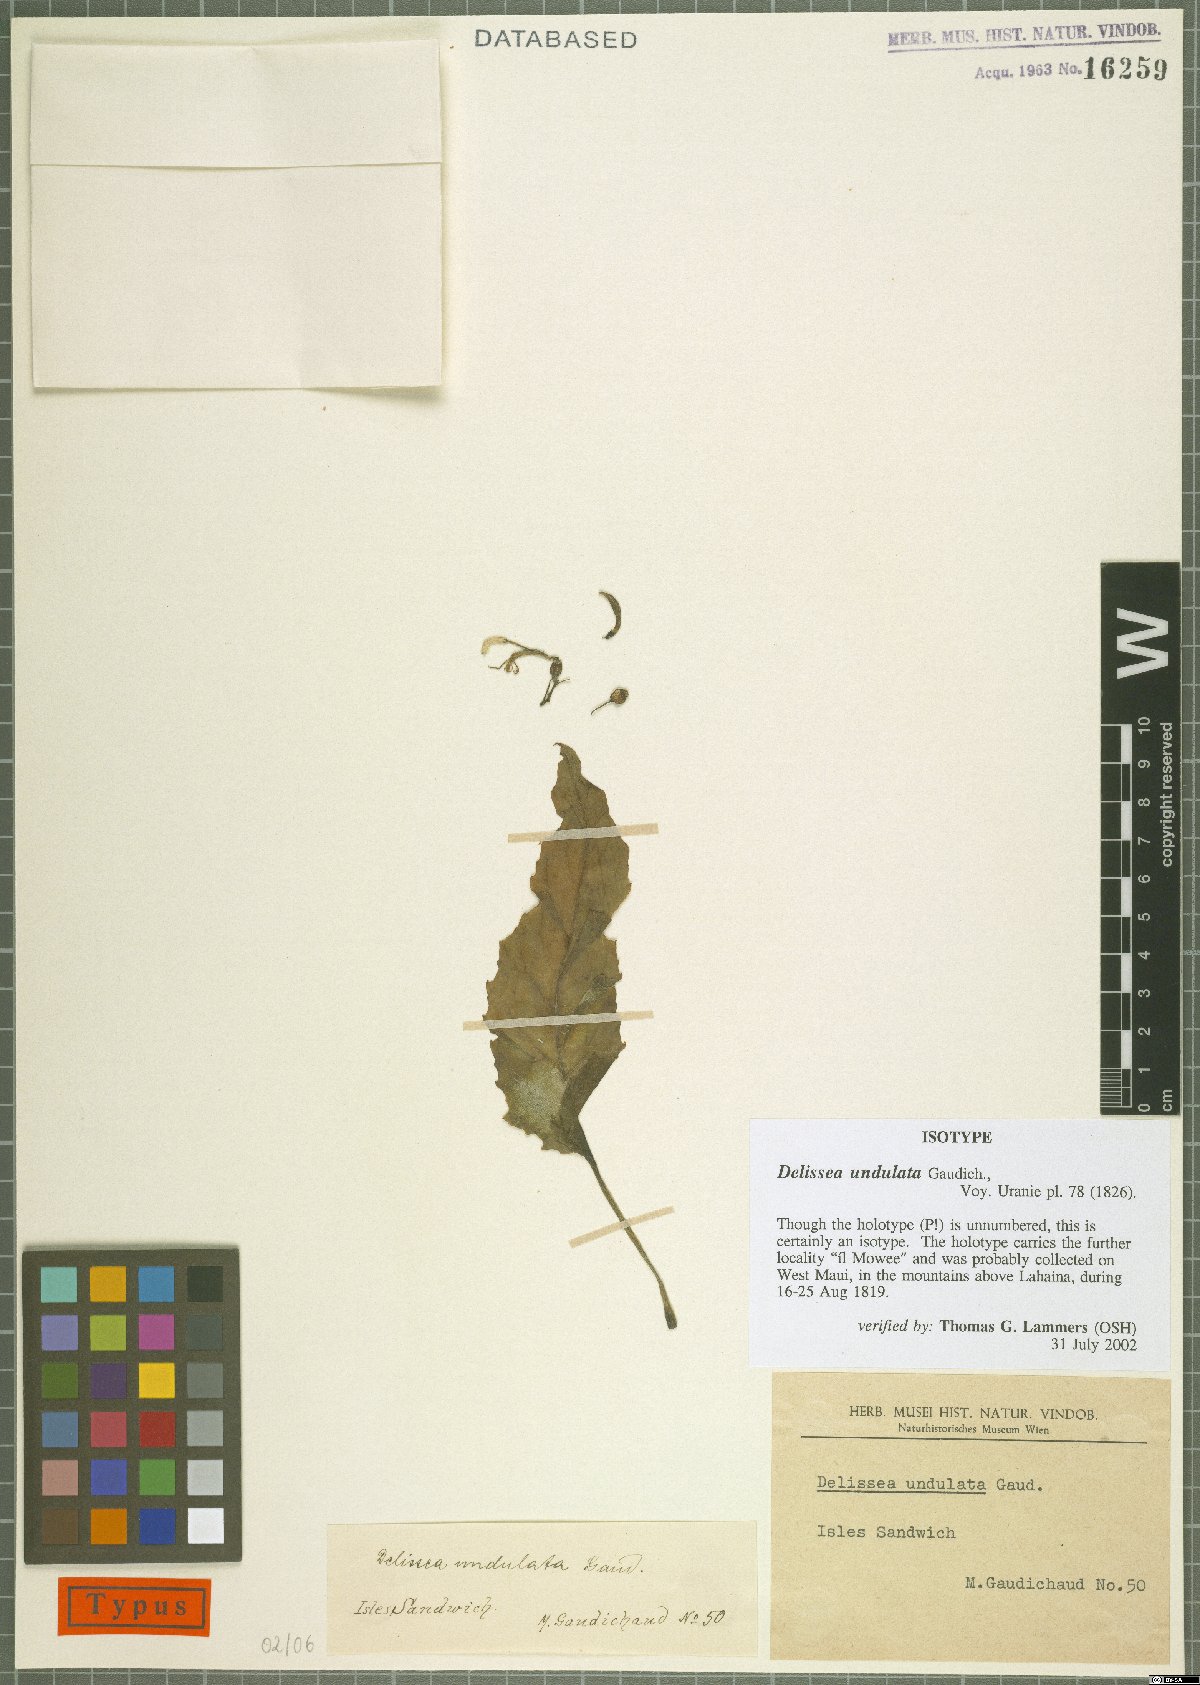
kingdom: Plantae
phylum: Tracheophyta
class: Magnoliopsida
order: Asterales
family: Campanulaceae
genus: Delissea
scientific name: Delissea undulata
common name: Undulata delissea
